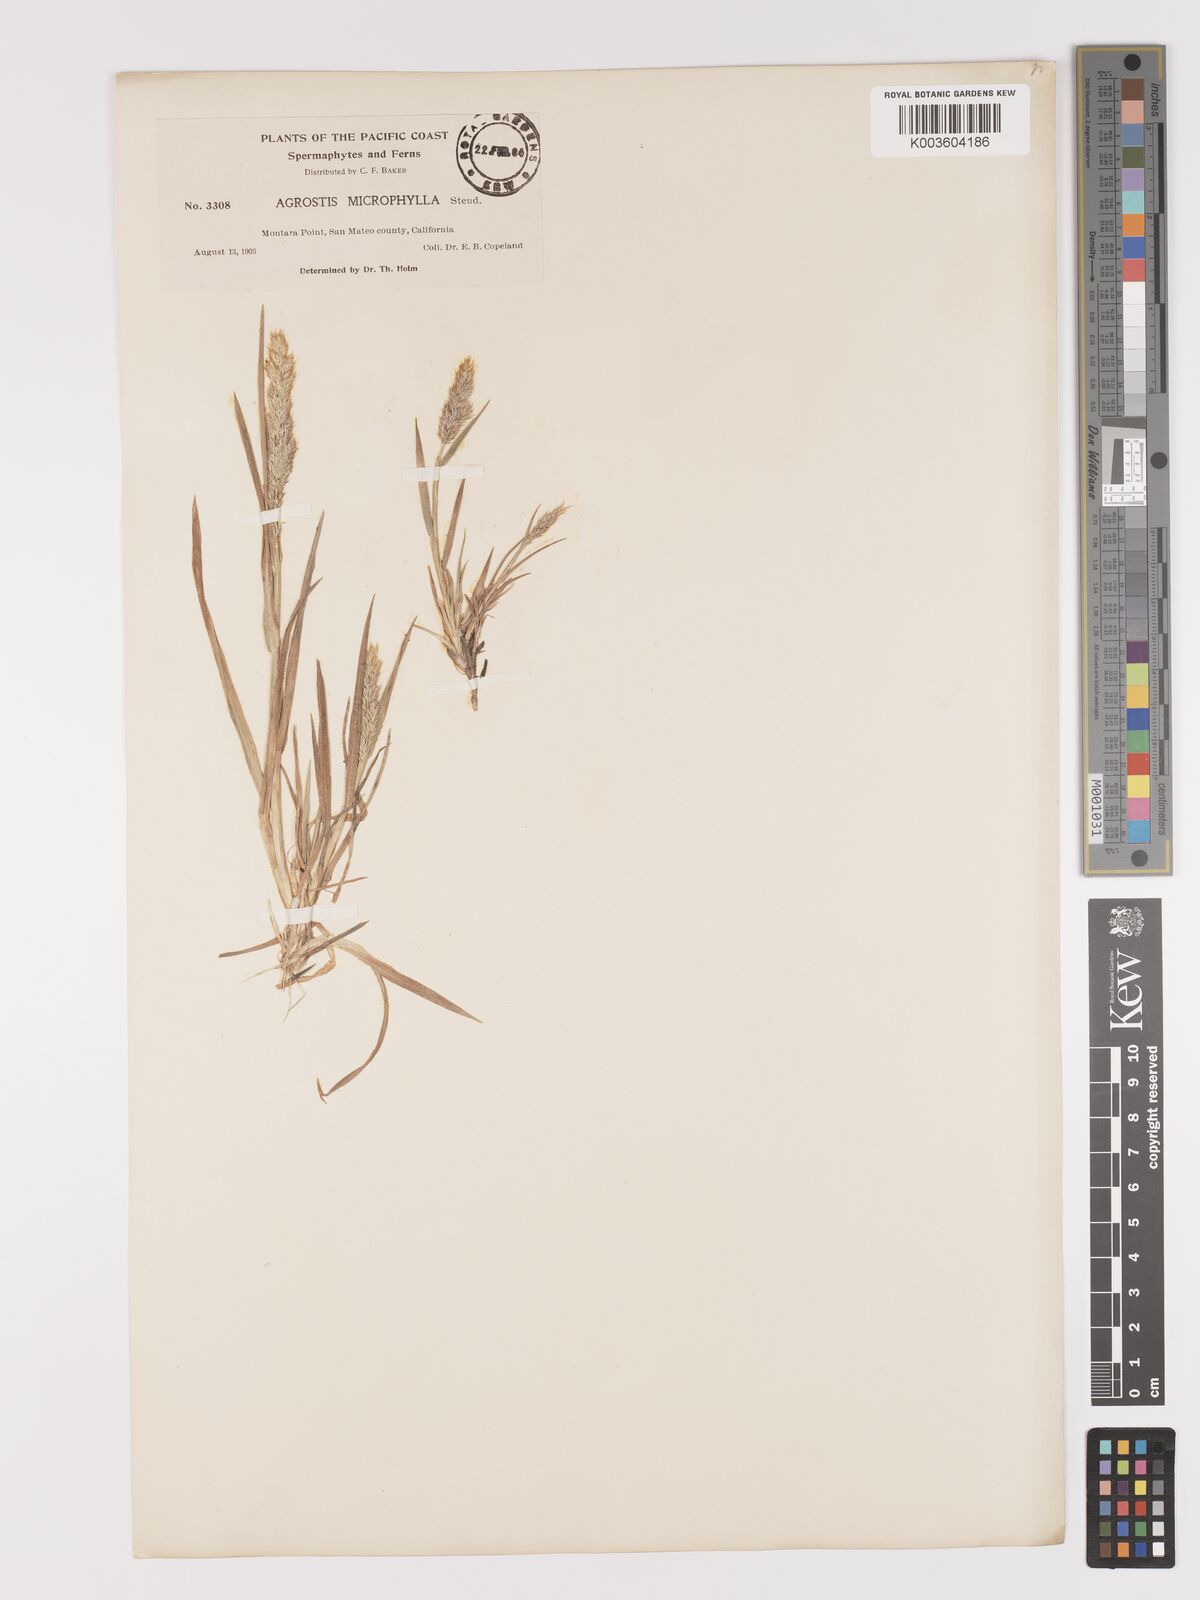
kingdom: Plantae
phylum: Tracheophyta
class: Liliopsida
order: Poales
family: Poaceae
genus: Agrostis
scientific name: Agrostis microphylla
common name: Small-leaf bent
